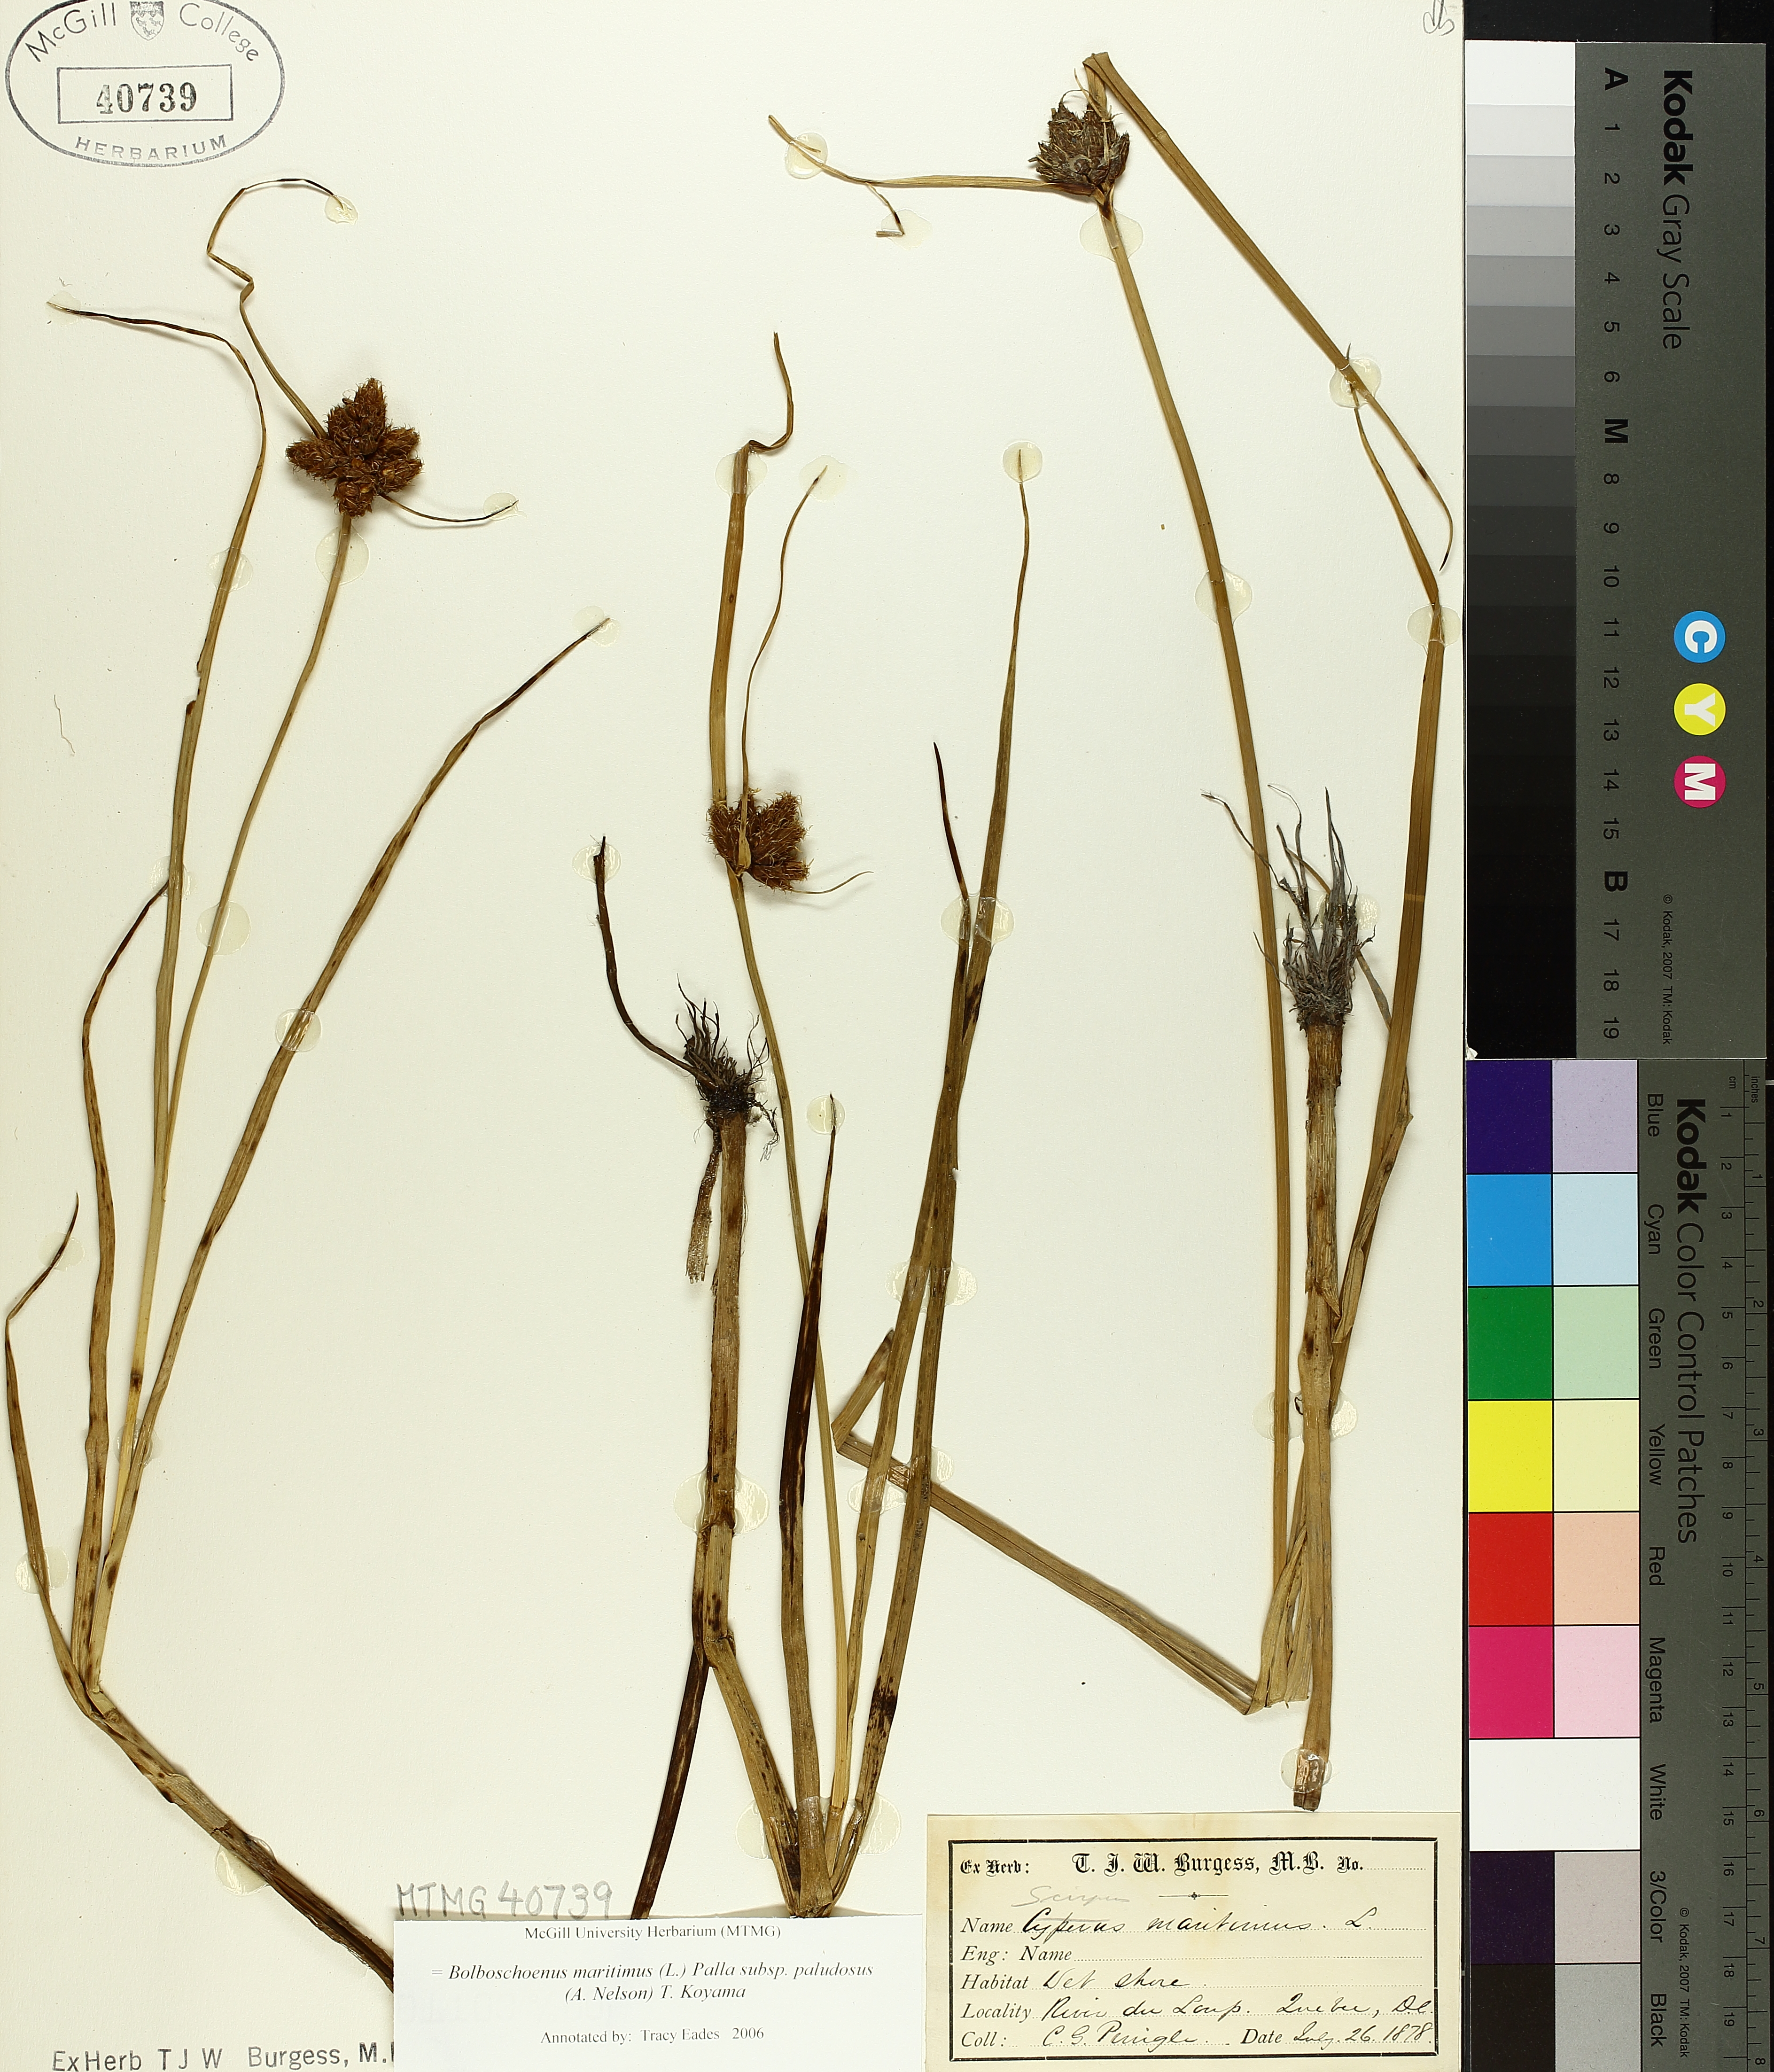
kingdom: Plantae
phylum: Tracheophyta
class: Liliopsida
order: Poales
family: Cyperaceae
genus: Bolboschoenus
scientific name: Bolboschoenus maritimus
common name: Sea club-rush
